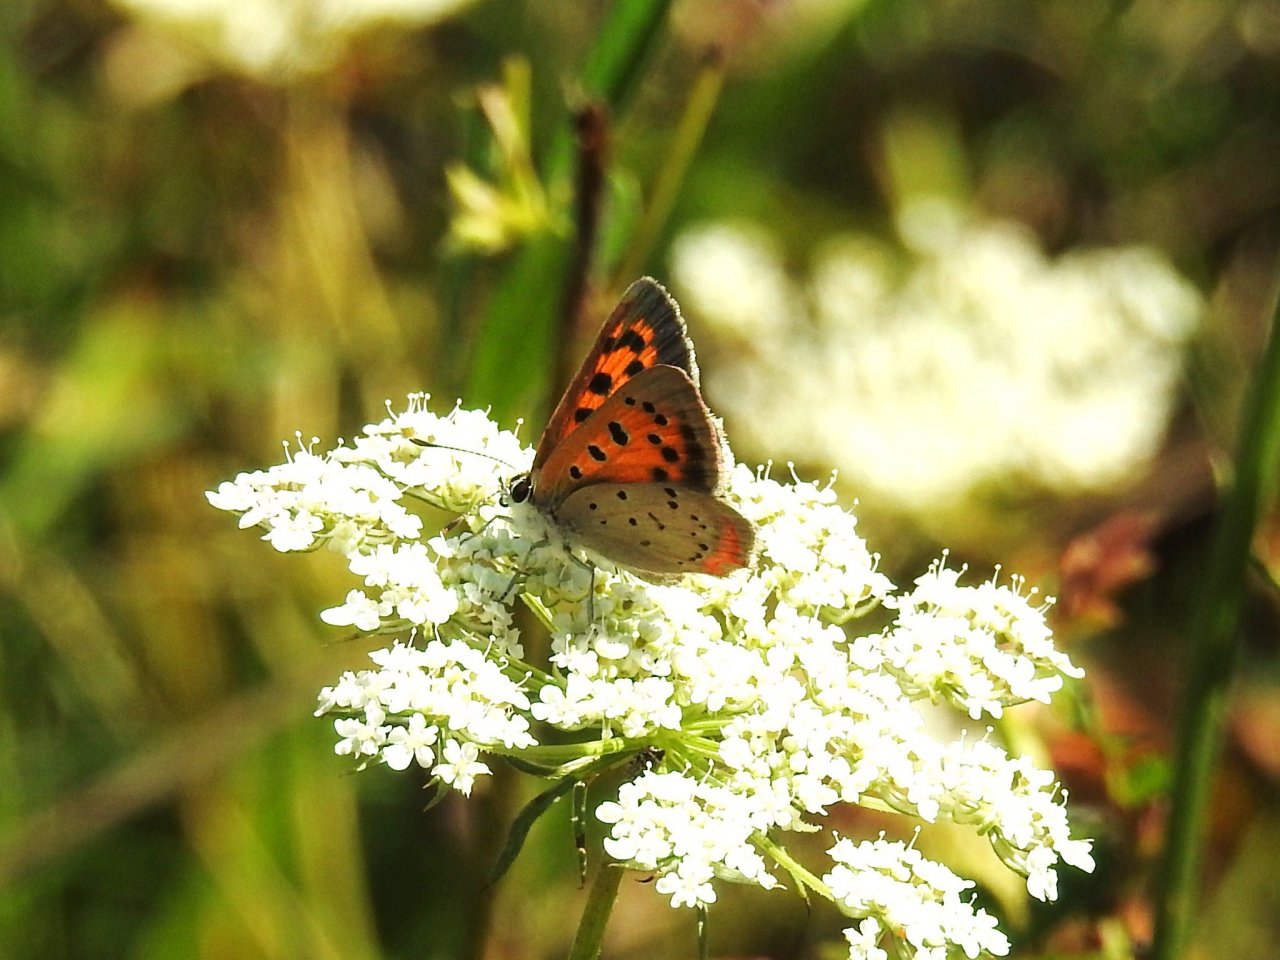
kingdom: Animalia
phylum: Arthropoda
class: Insecta
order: Lepidoptera
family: Lycaenidae
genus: Lycaena
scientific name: Lycaena phlaeas
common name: American Copper
